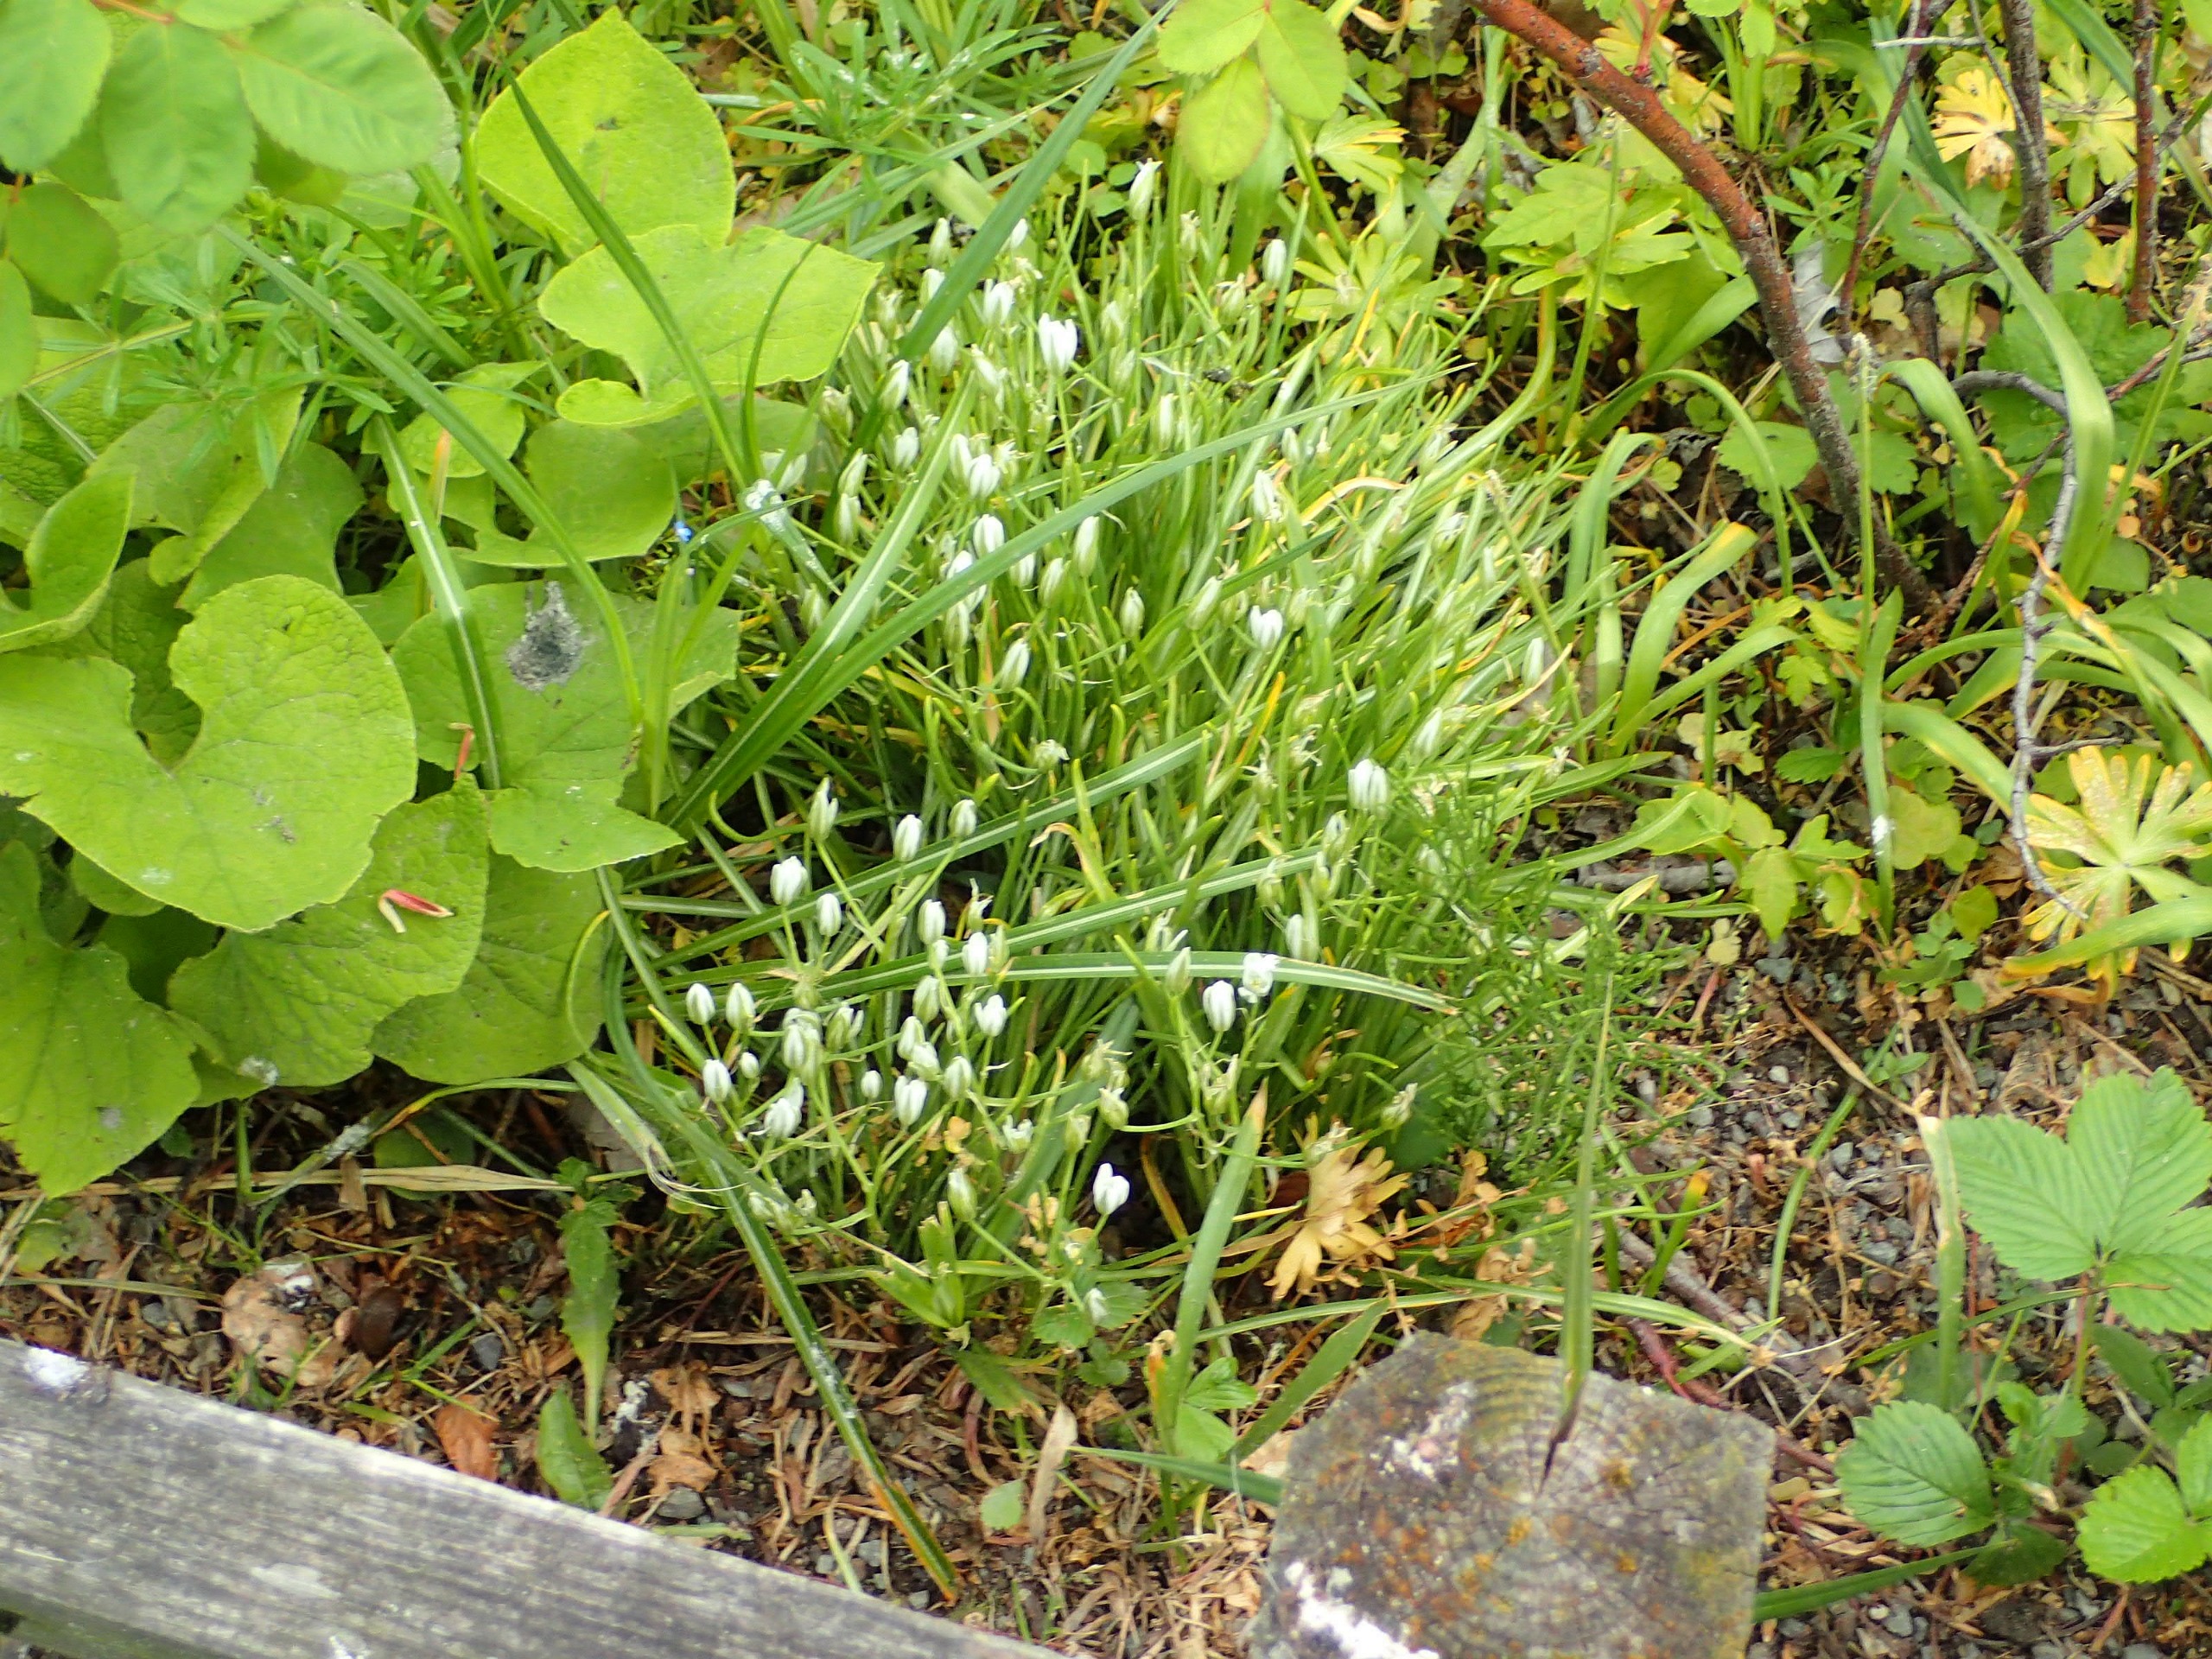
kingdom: Plantae
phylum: Tracheophyta
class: Liliopsida
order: Asparagales
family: Asparagaceae
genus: Ornithogalum
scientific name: Ornithogalum umbellatum
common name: Kost-fuglemælk
